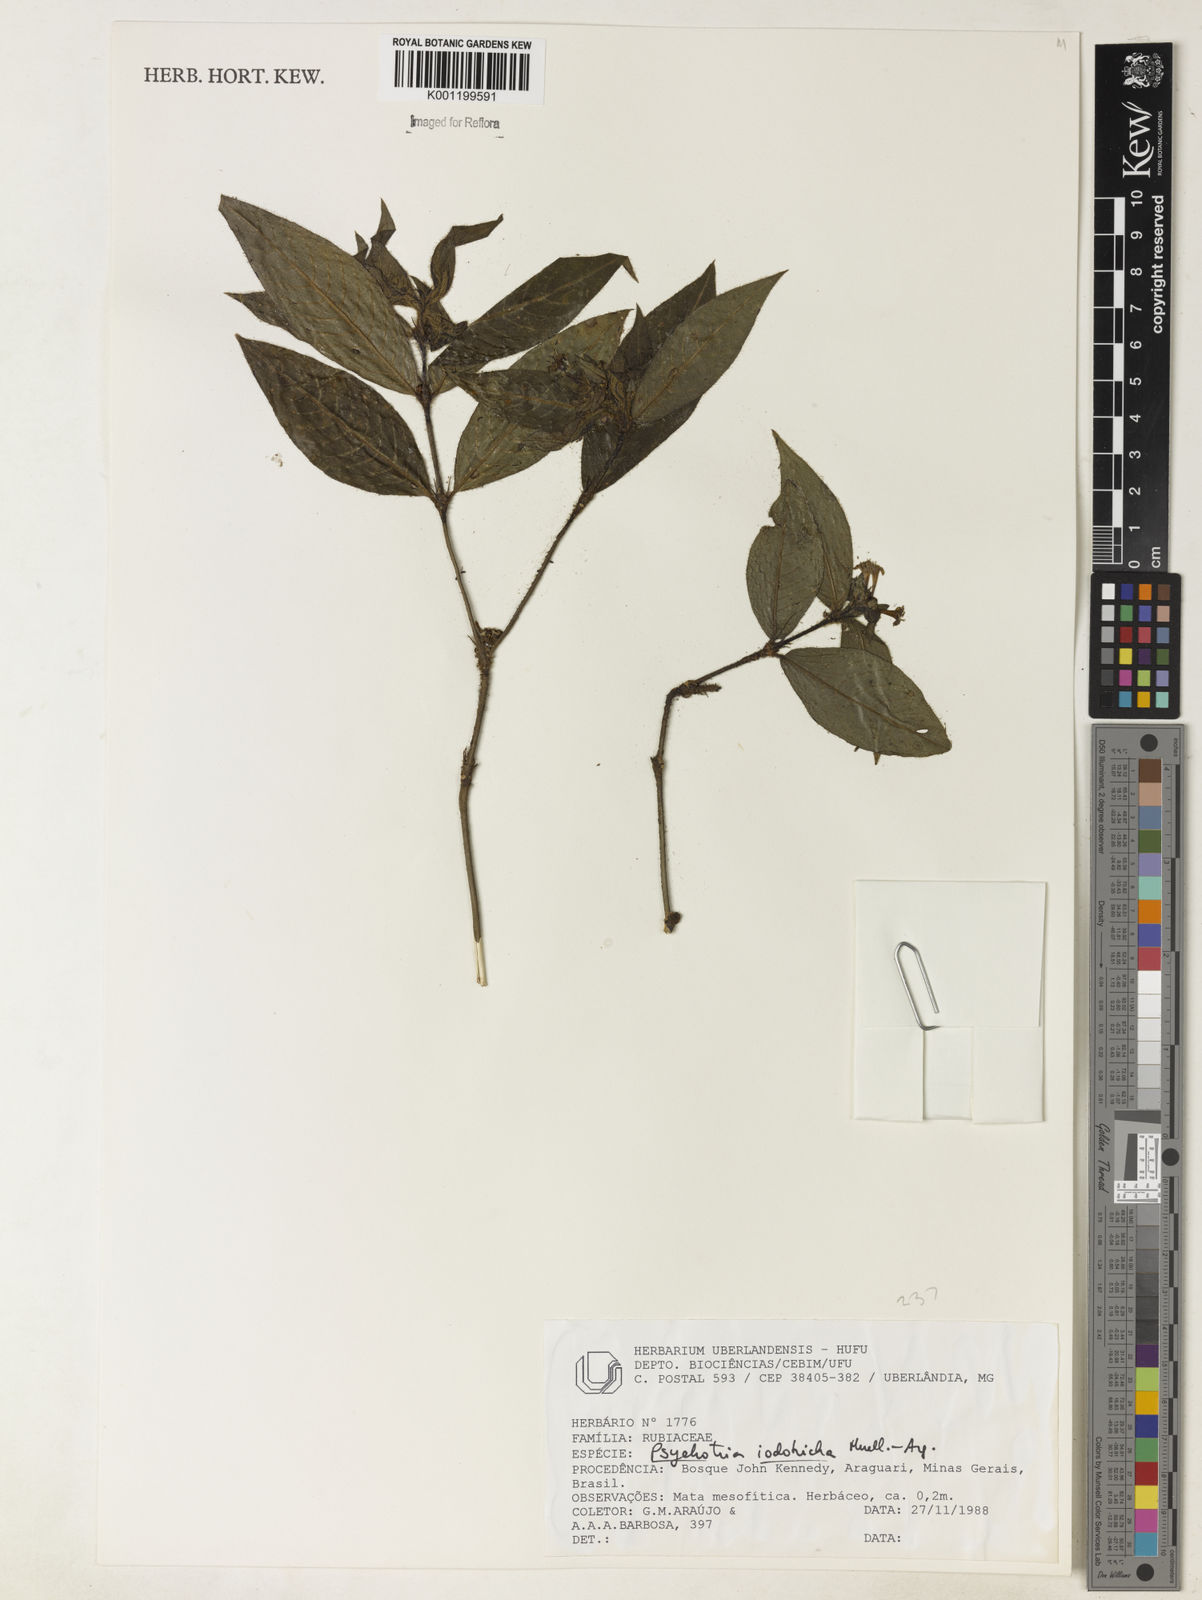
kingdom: Plantae
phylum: Tracheophyta
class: Magnoliopsida
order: Gentianales
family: Rubiaceae
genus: Psychotria
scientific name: Psychotria
